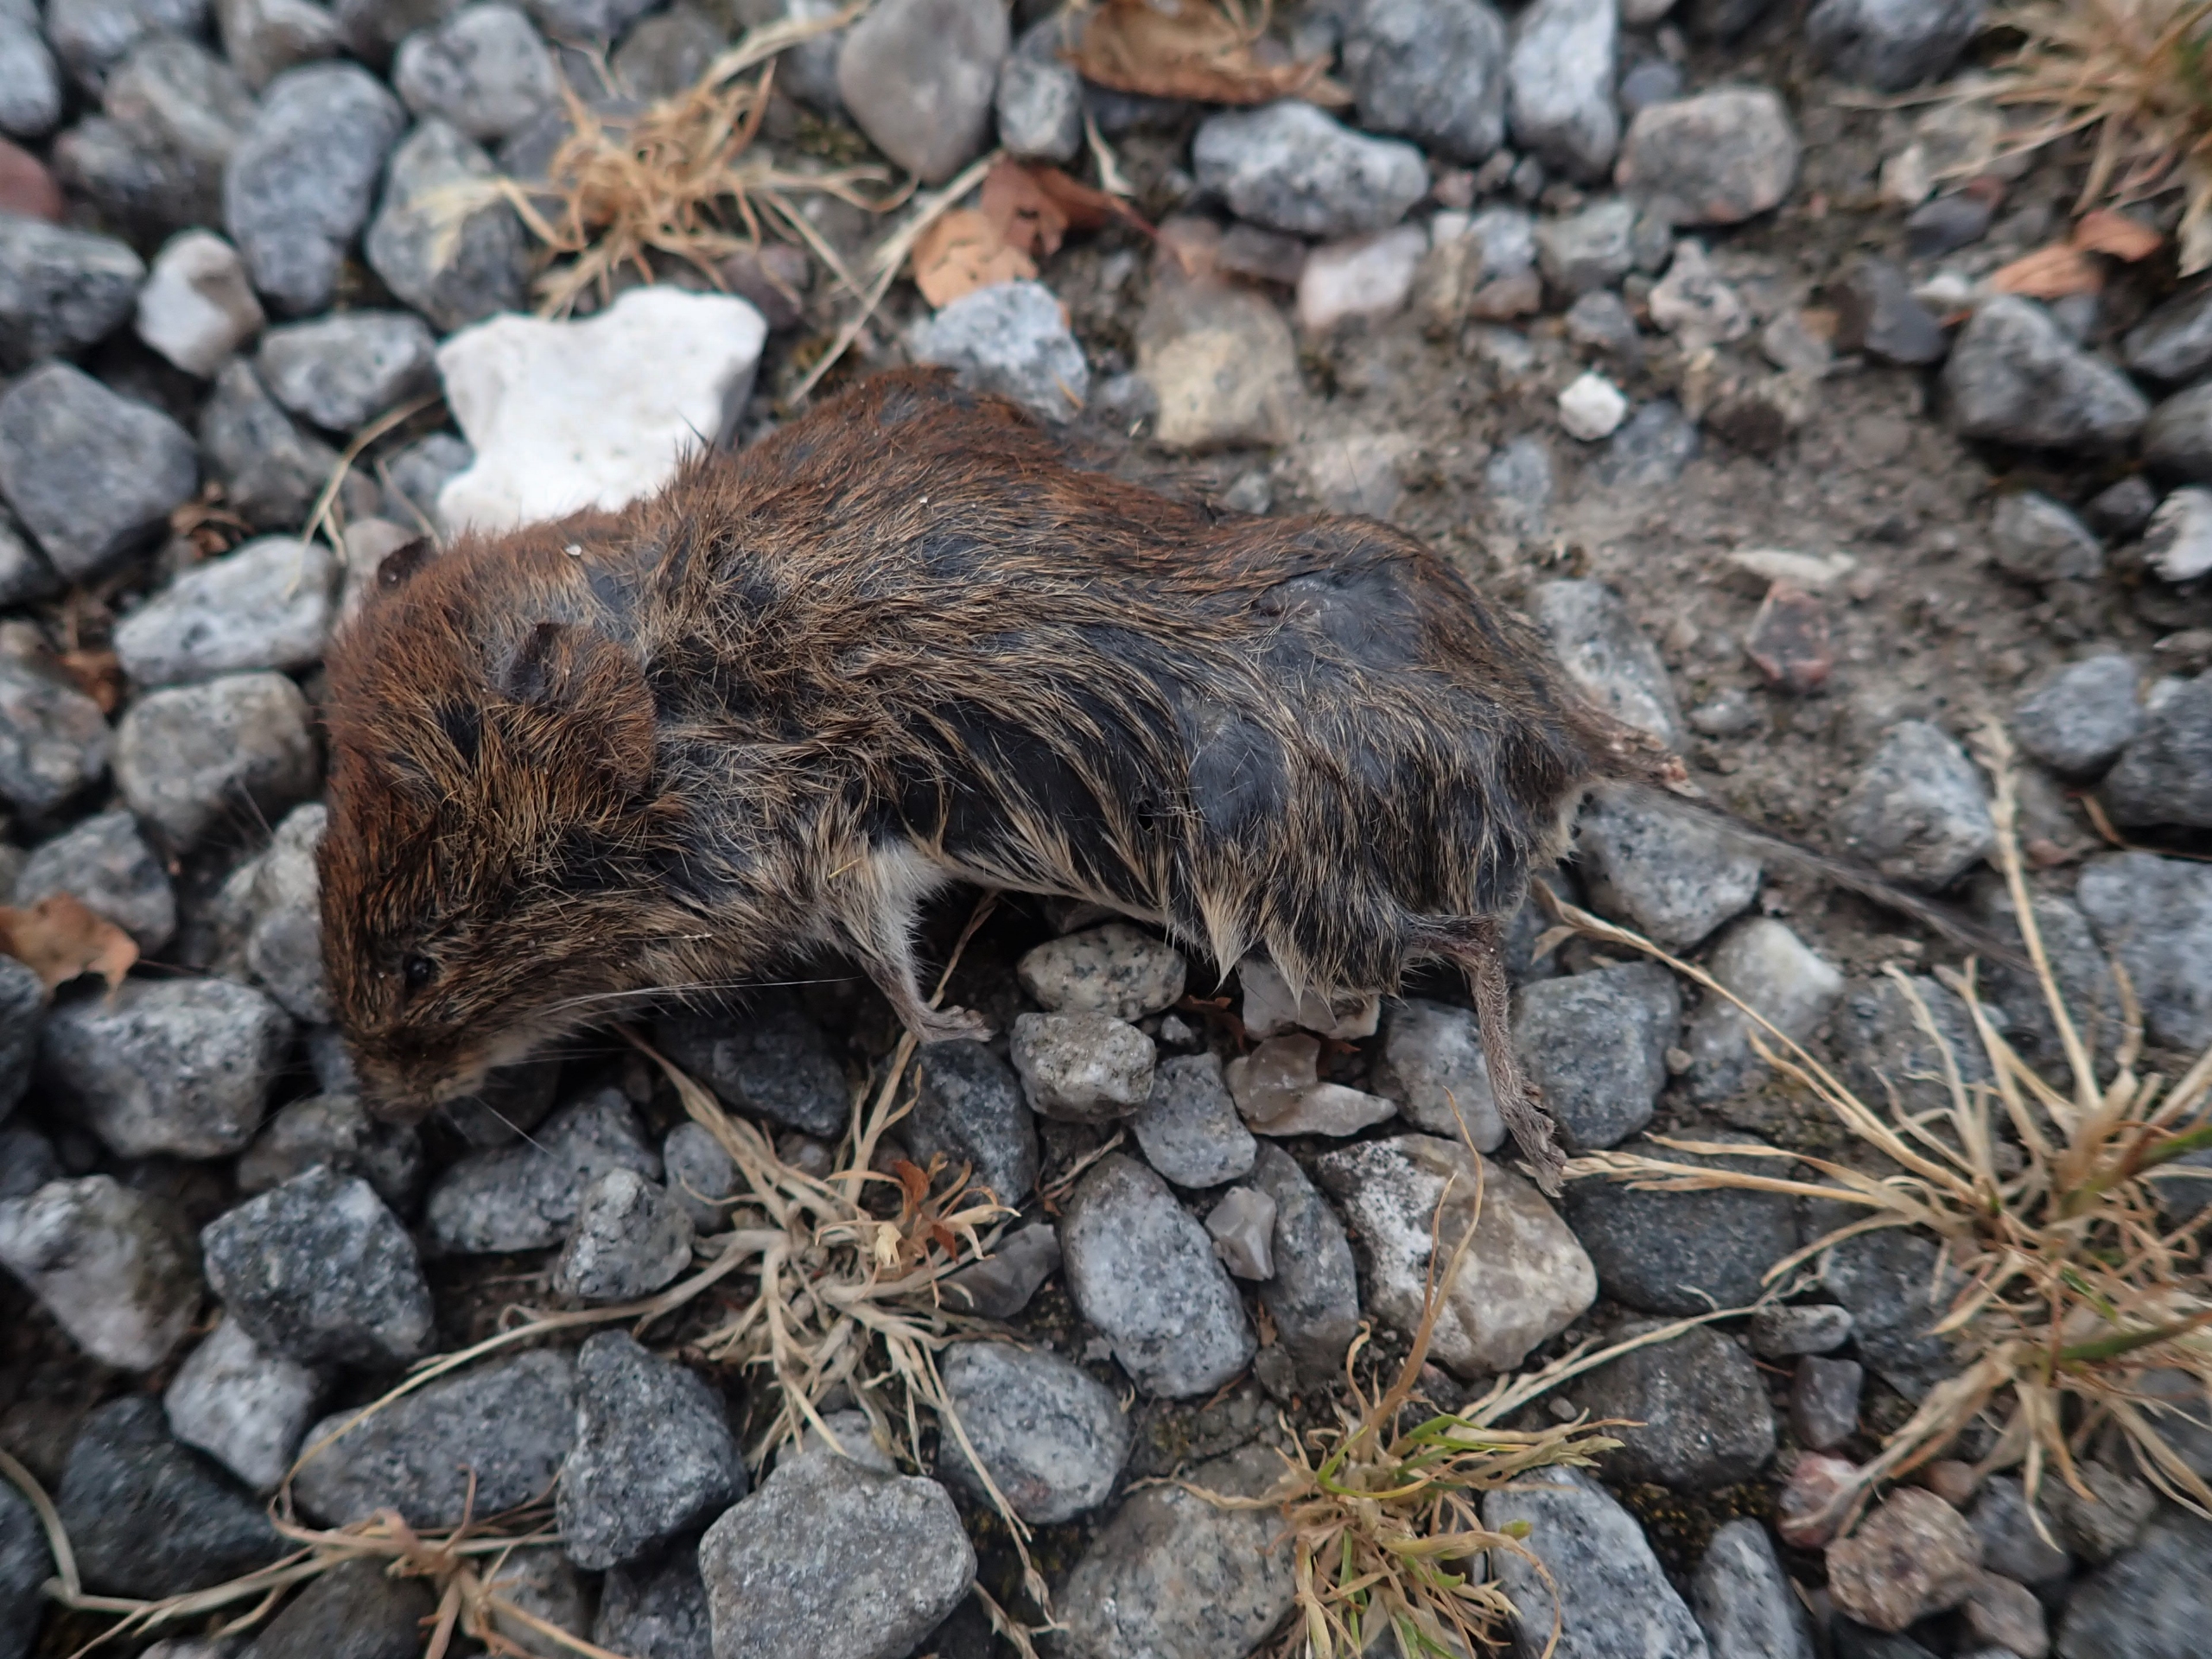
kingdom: Animalia
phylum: Chordata
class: Mammalia
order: Rodentia
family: Cricetidae
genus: Myodes
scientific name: Myodes glareolus
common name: Rødmus
